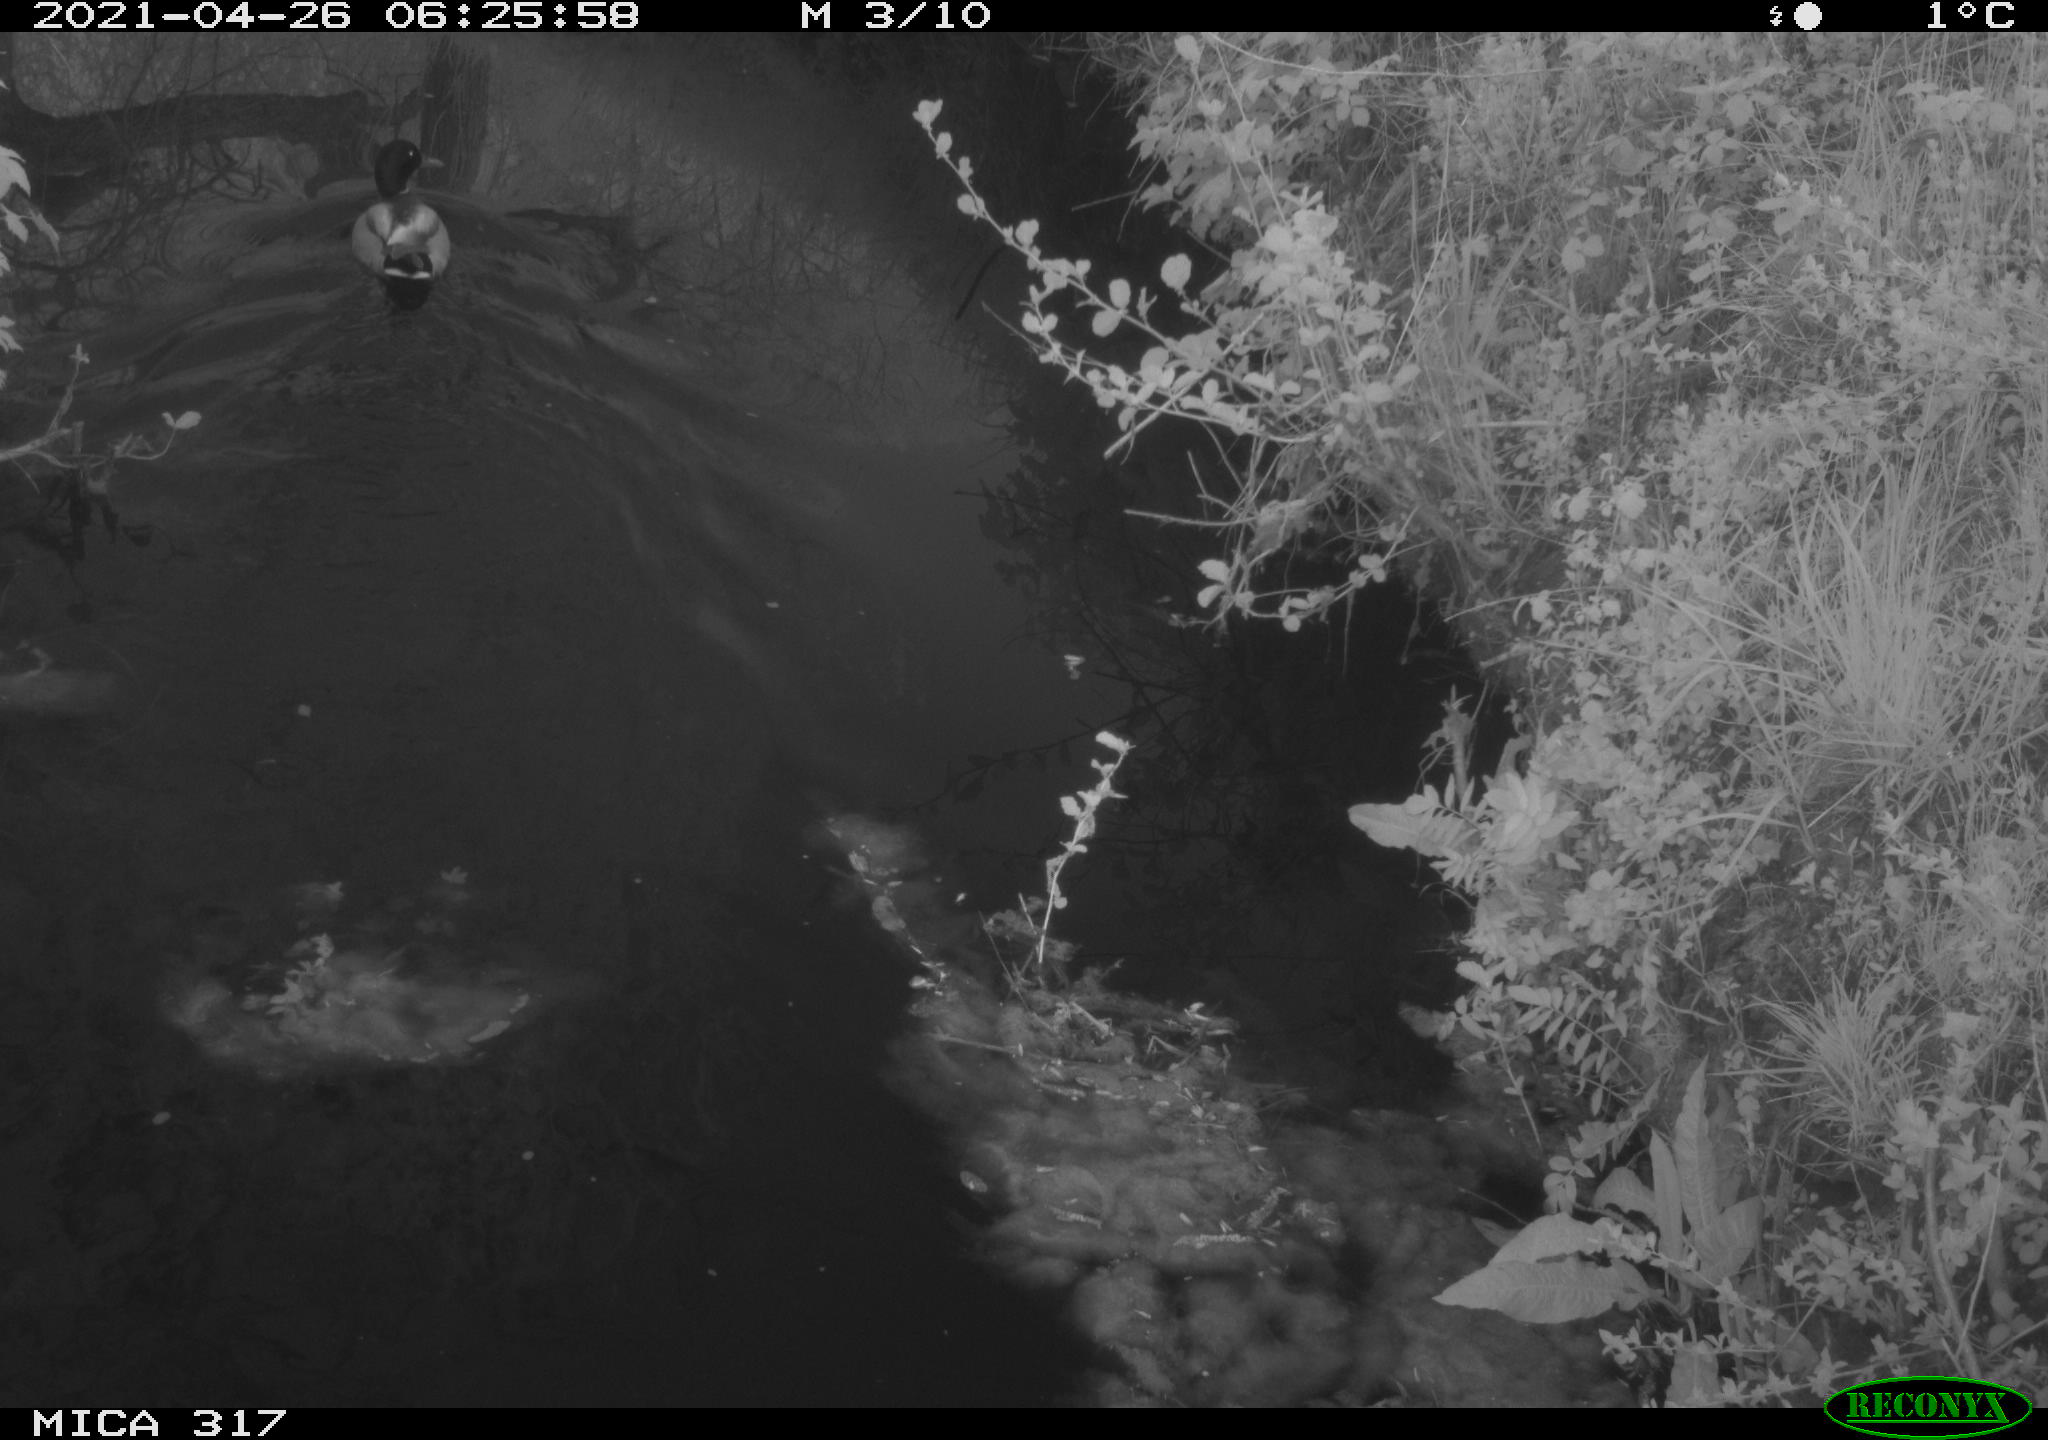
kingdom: Animalia
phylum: Chordata
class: Aves
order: Anseriformes
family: Anatidae
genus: Anas
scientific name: Anas
